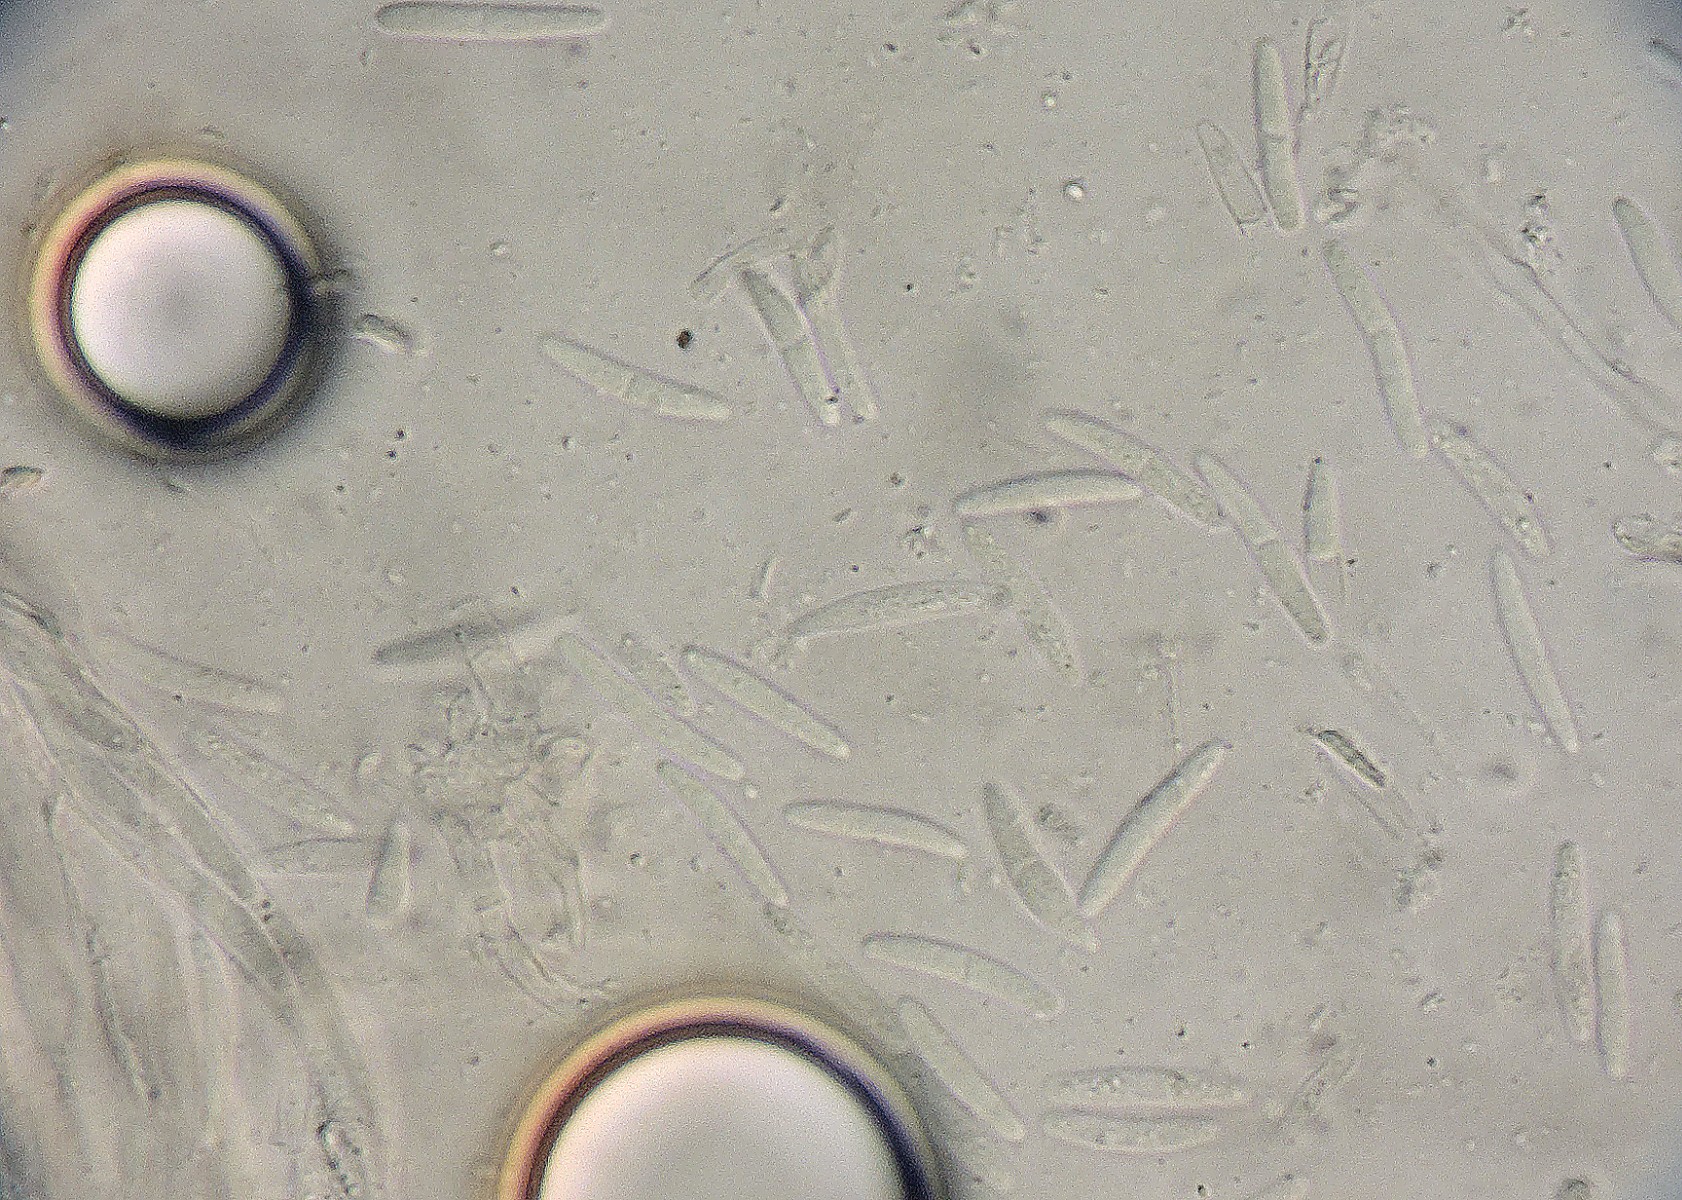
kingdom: Fungi
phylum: Ascomycota
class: Leotiomycetes
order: Helotiales
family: Helotiaceae
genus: Cyathicula
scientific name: Cyathicula dolosella
